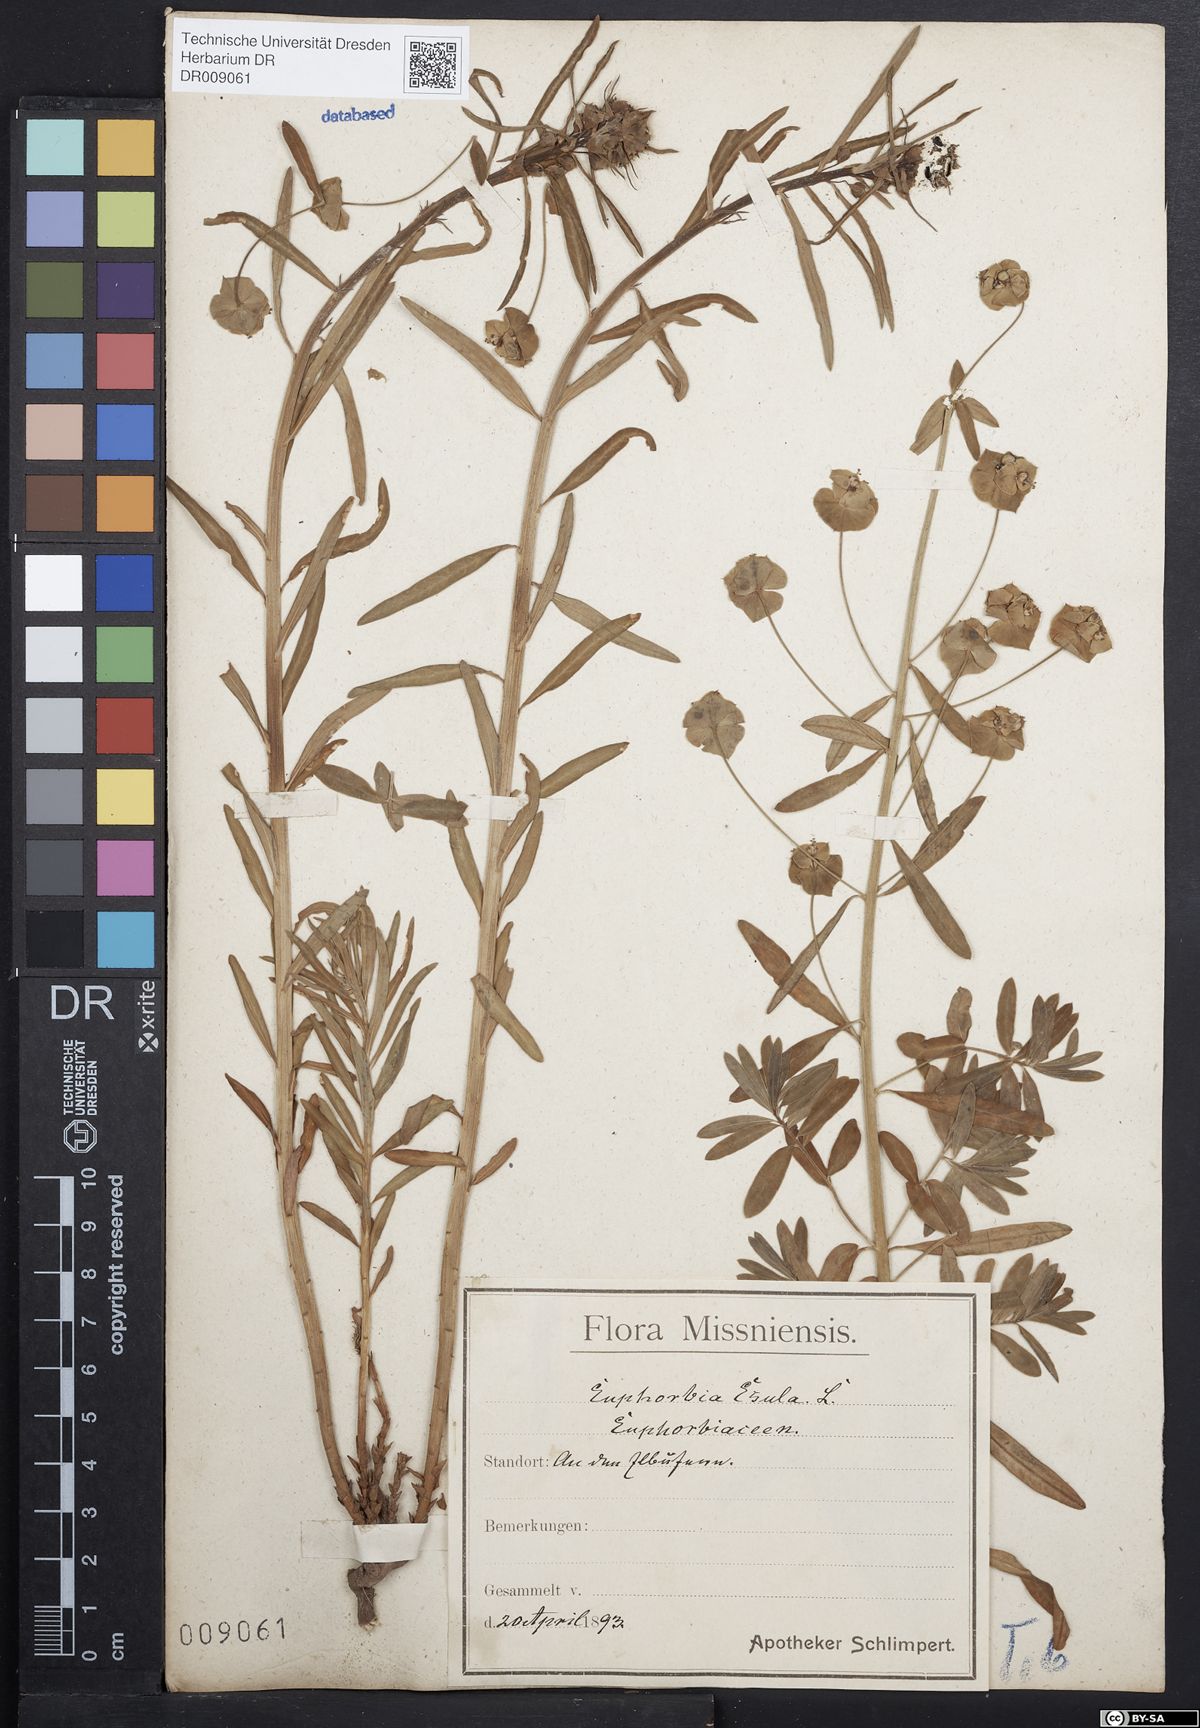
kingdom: Plantae
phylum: Tracheophyta
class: Magnoliopsida
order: Malpighiales
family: Euphorbiaceae
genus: Euphorbia
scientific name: Euphorbia esula
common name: Leafy spurge
